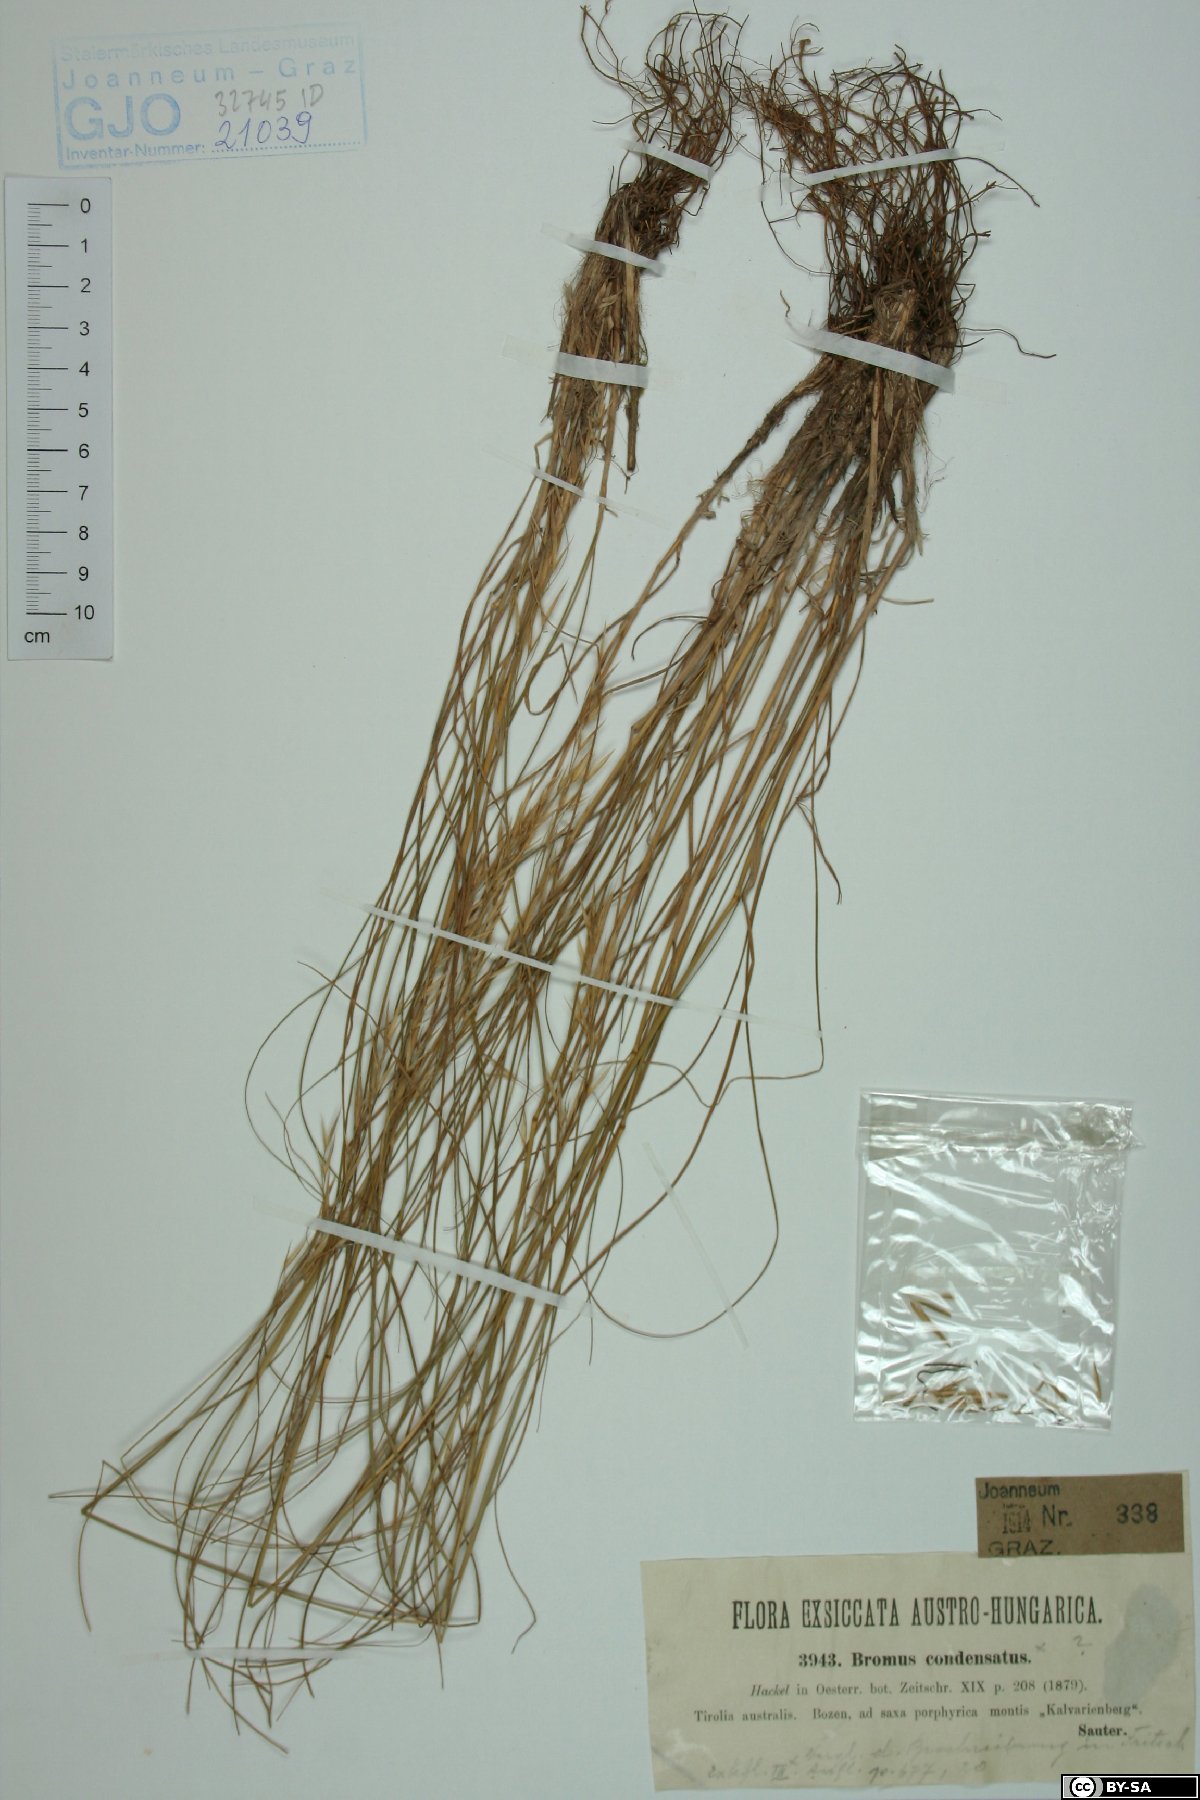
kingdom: Plantae
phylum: Tracheophyta
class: Liliopsida
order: Poales
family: Poaceae
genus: Bromus
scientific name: Bromus condensatus
